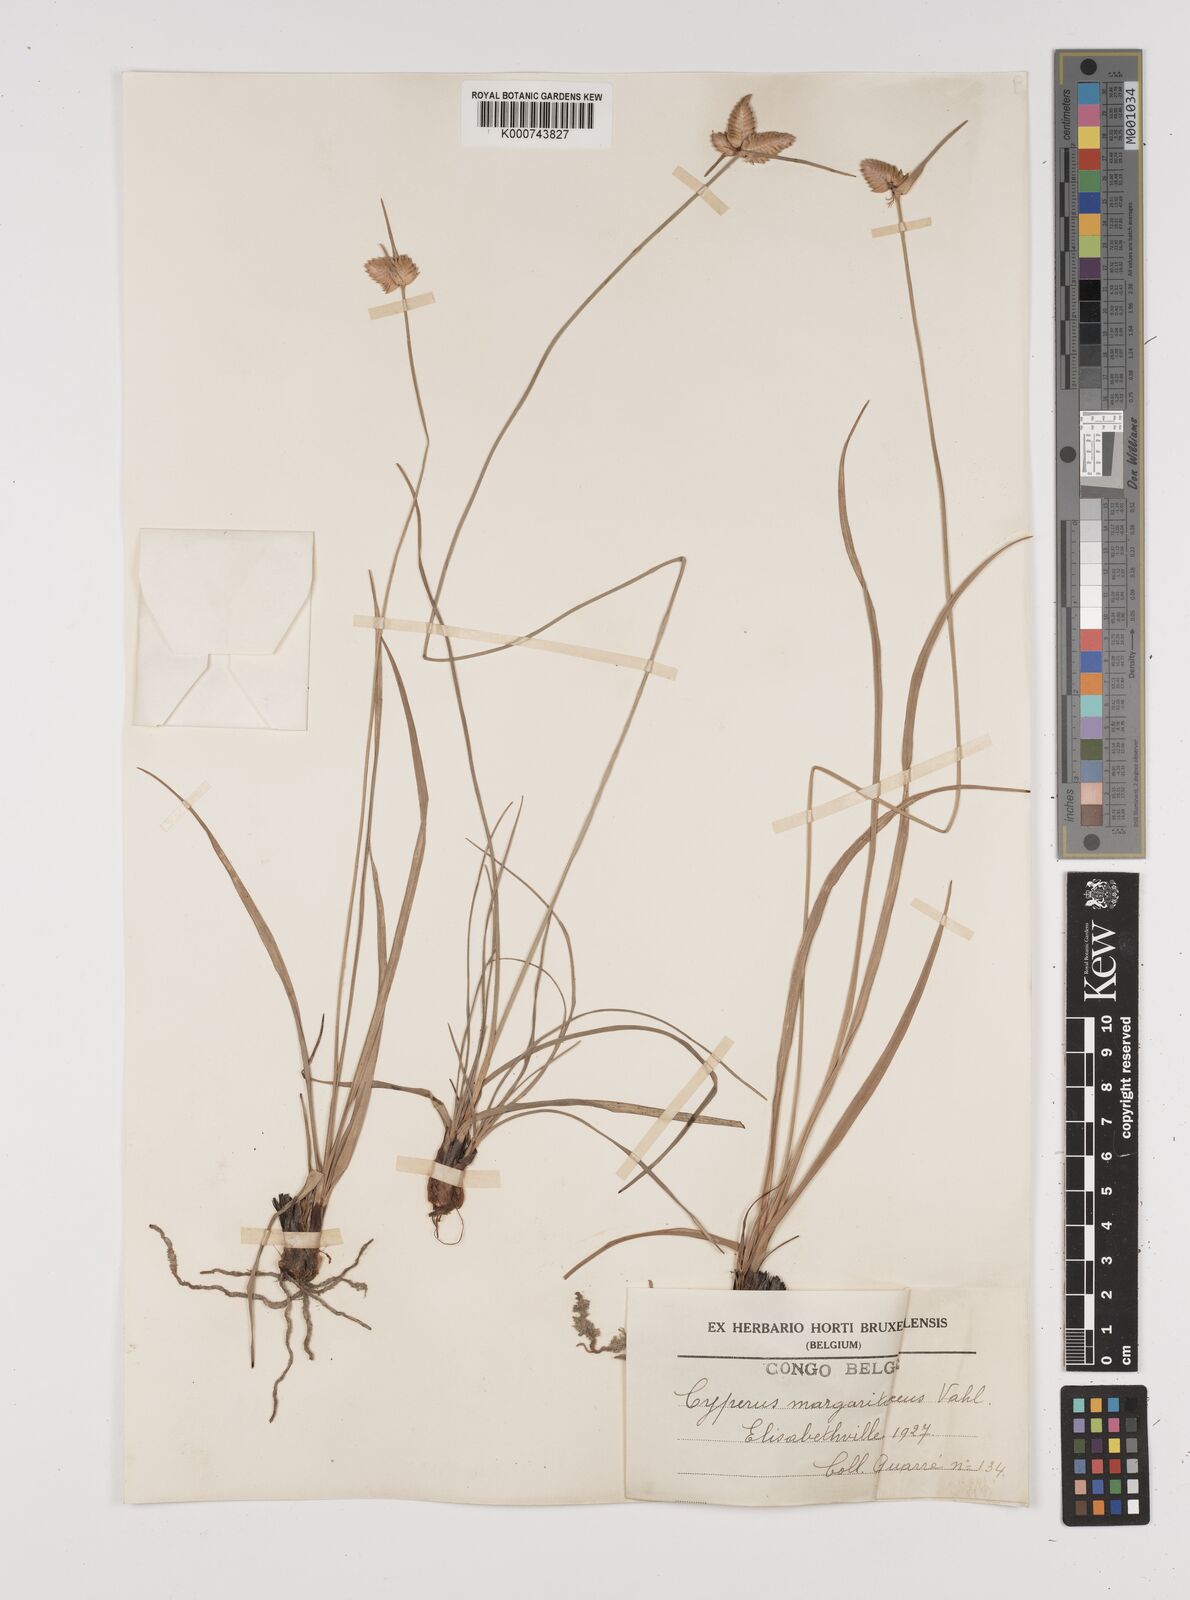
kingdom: Plantae
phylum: Tracheophyta
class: Liliopsida
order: Poales
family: Cyperaceae
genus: Cyperus
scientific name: Cyperus margaritaceus
